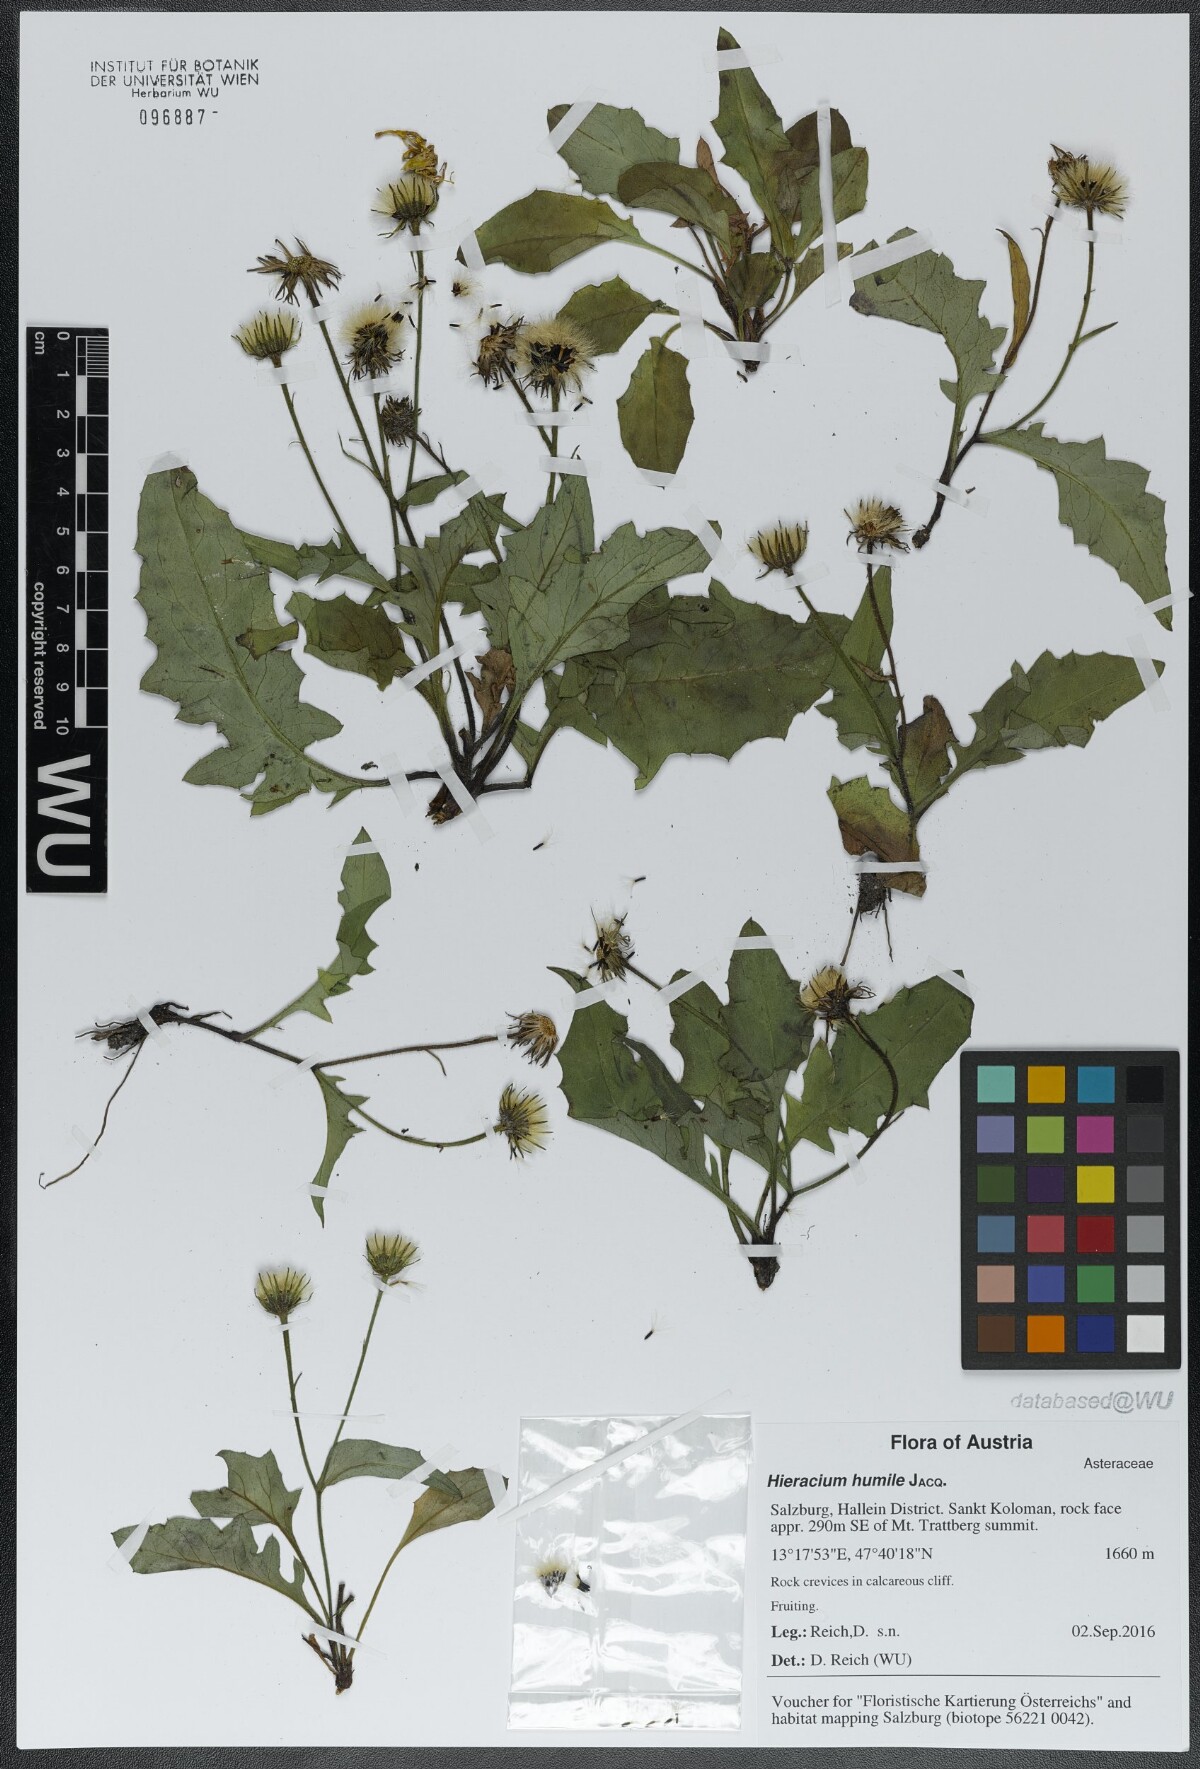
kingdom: Plantae
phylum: Tracheophyta
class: Magnoliopsida
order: Asterales
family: Asteraceae
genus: Hieracium
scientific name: Hieracium humile
